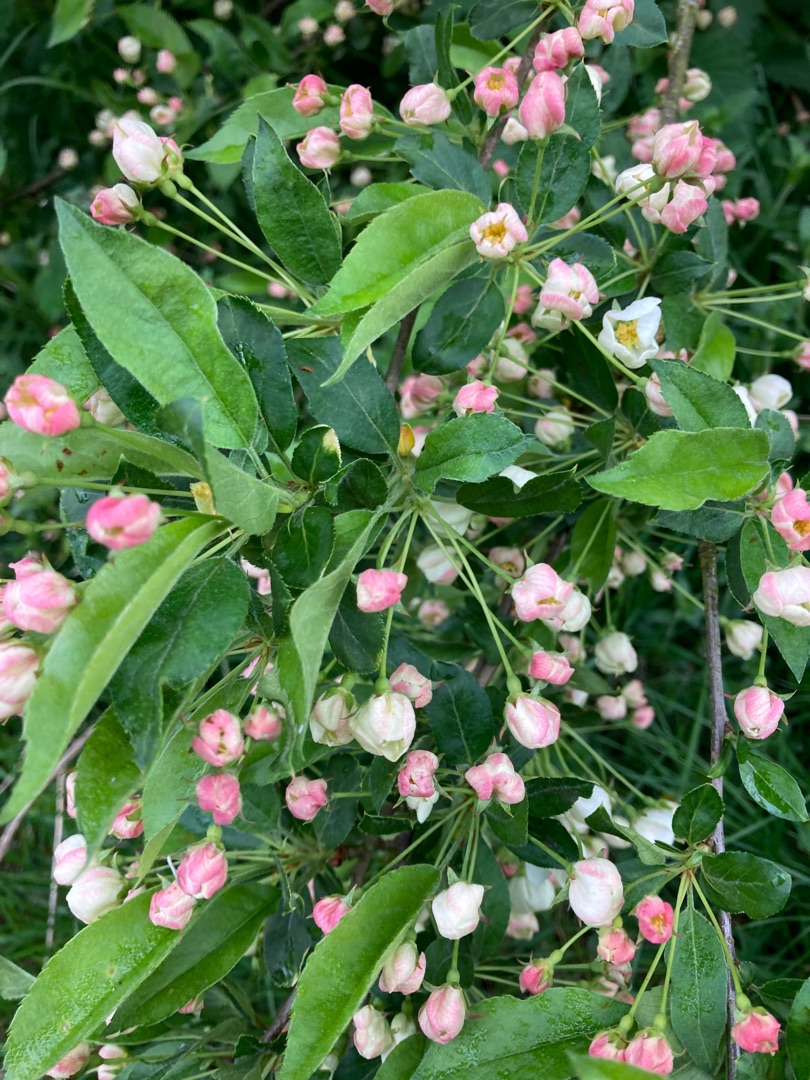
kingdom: Plantae
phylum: Tracheophyta
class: Magnoliopsida
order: Rosales
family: Rosaceae
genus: Malus
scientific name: Malus floribunda
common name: Japansk paradisæble
